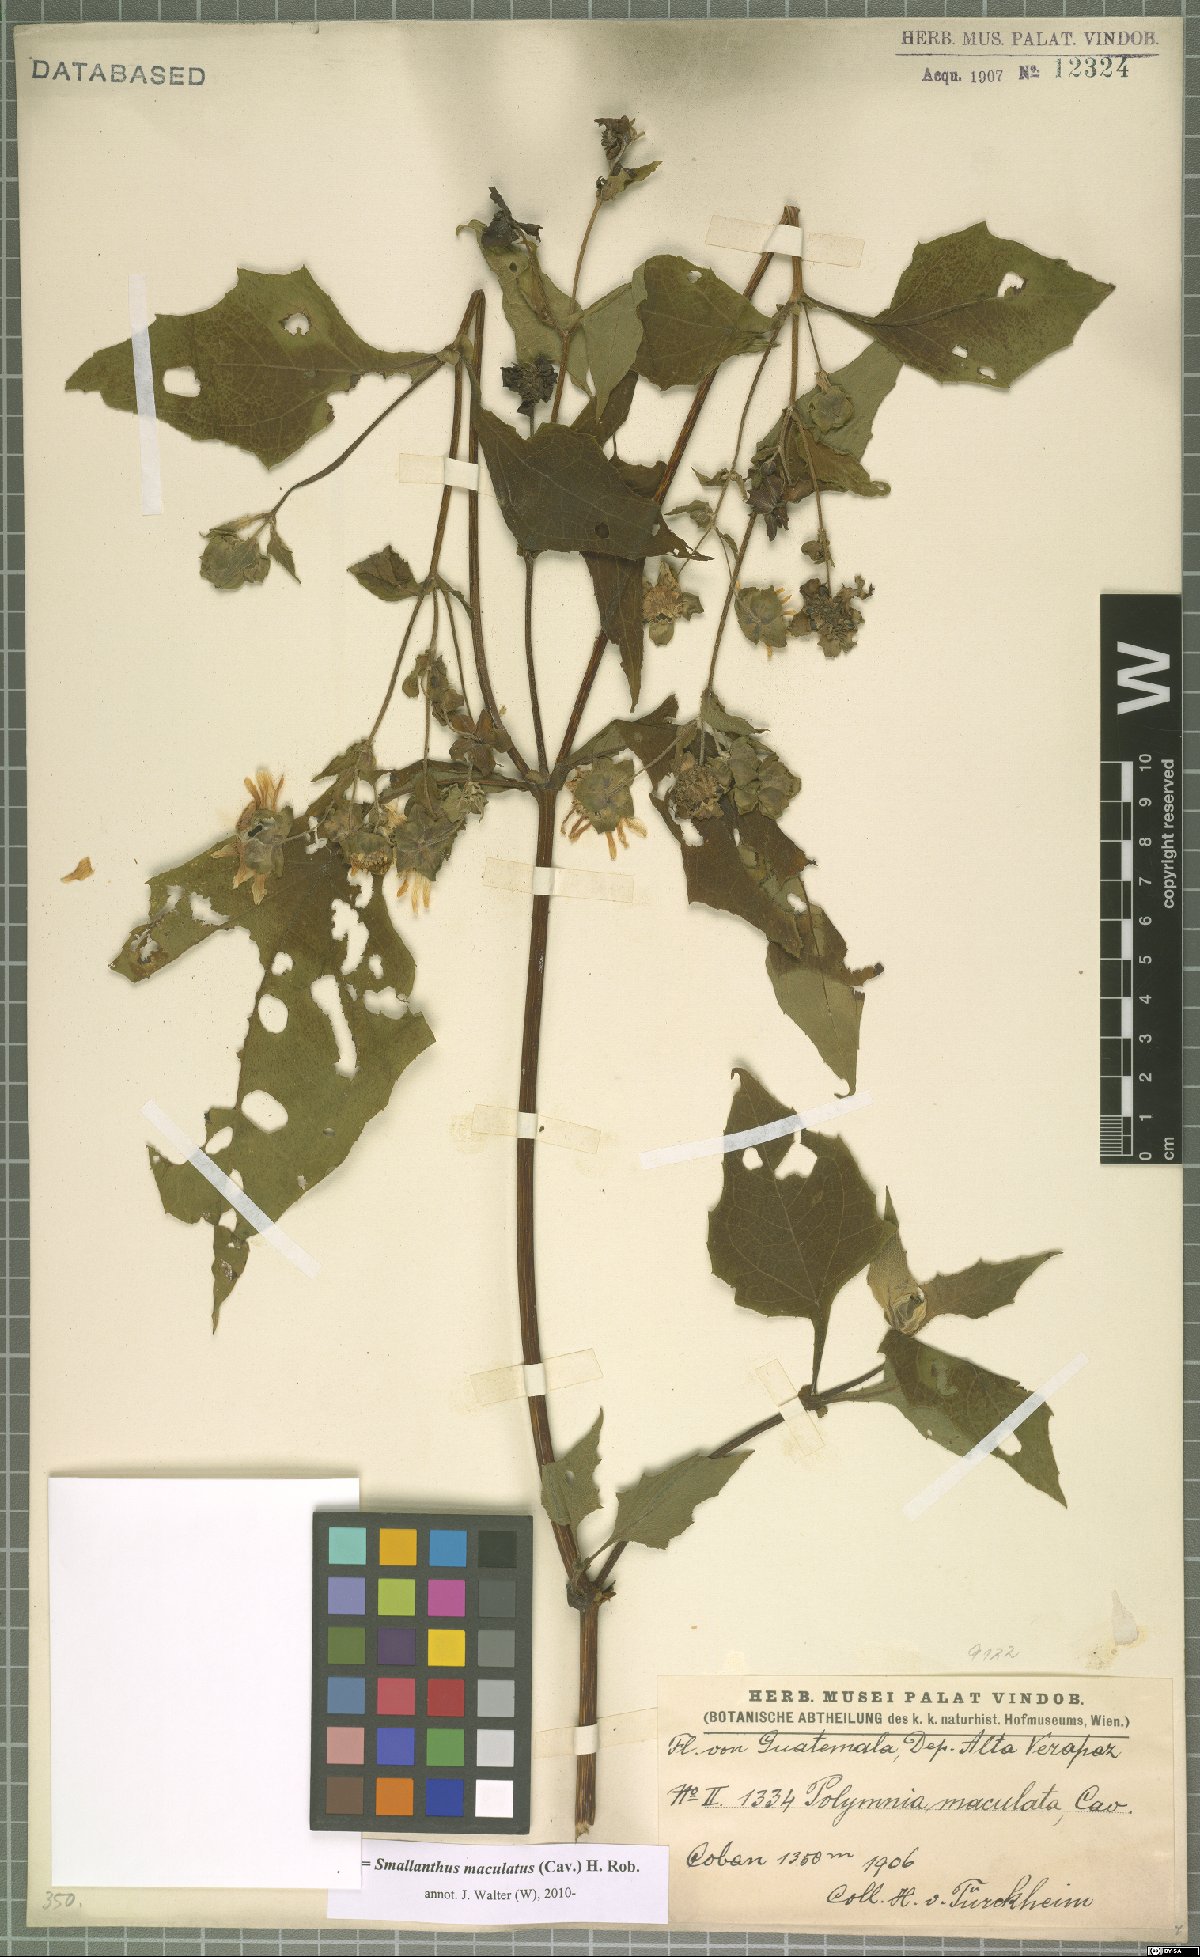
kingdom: Plantae
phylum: Tracheophyta
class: Magnoliopsida
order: Asterales
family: Asteraceae
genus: Smallanthus
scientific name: Smallanthus maculatus
